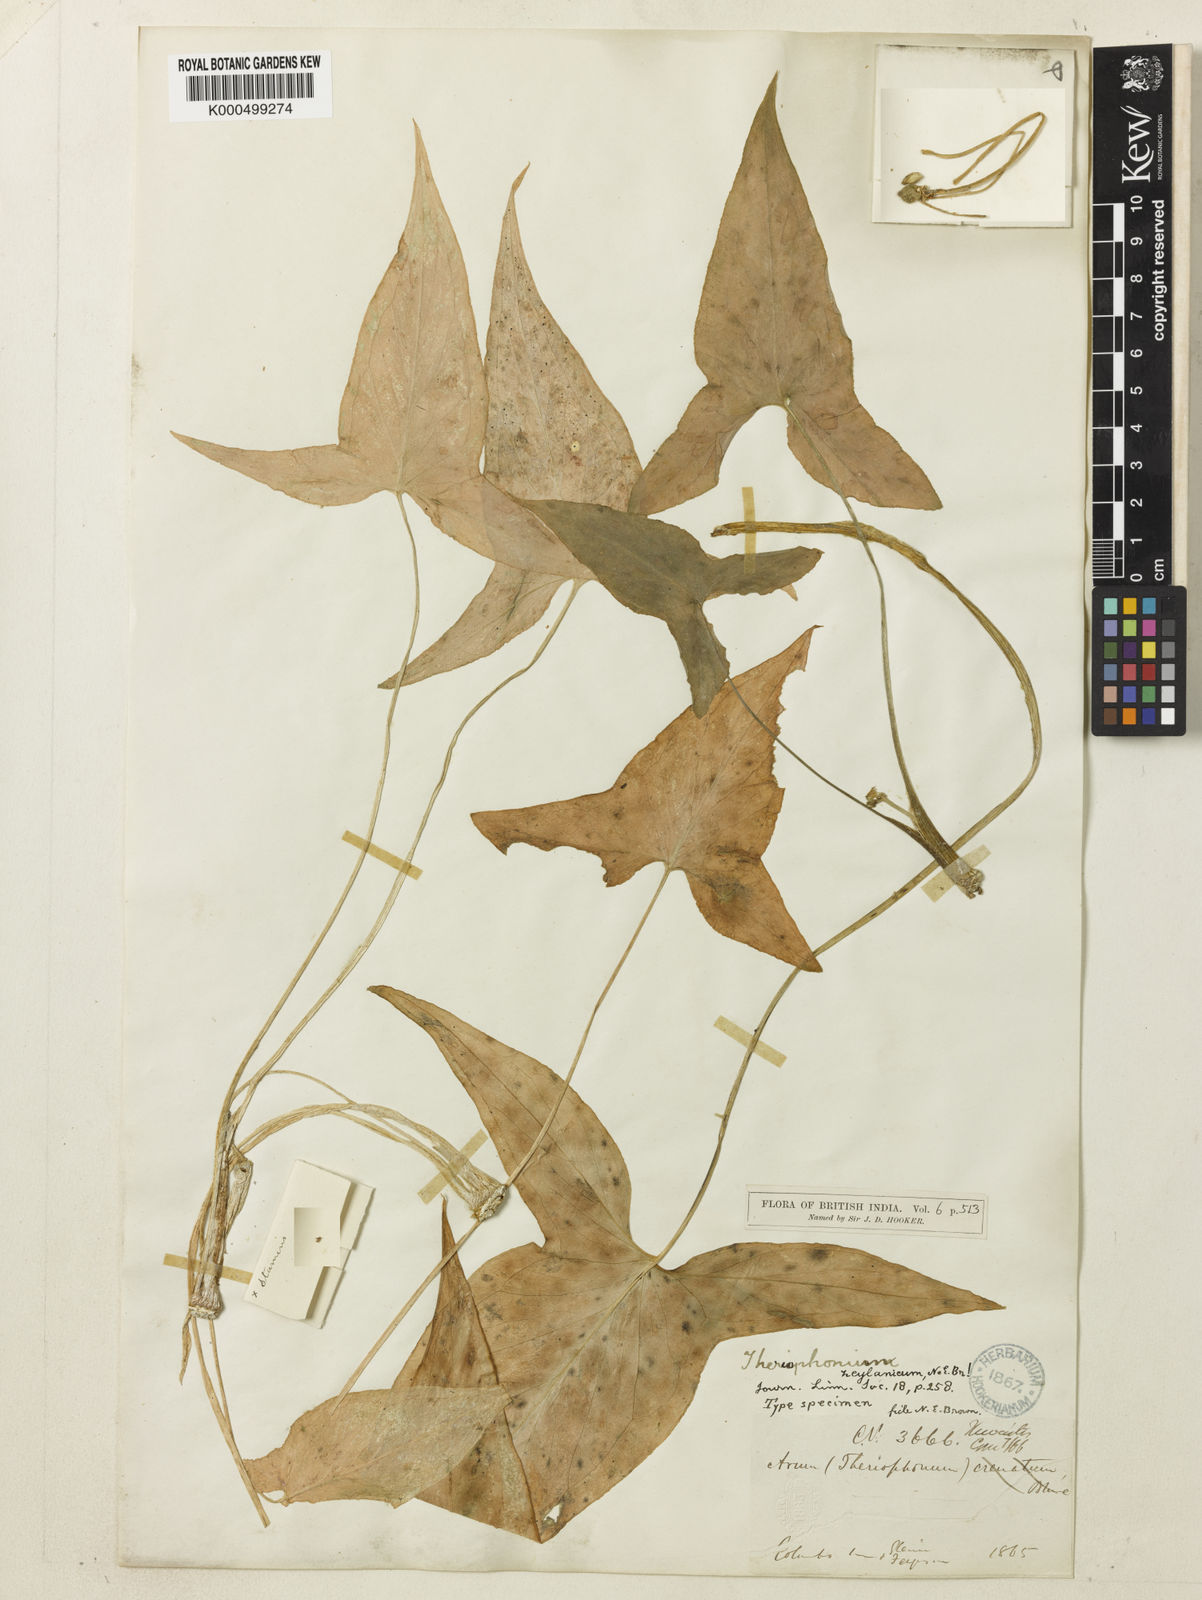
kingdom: Plantae
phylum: Tracheophyta
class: Liliopsida
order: Alismatales
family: Araceae
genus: Theriophonum
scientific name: Theriophonum minutum
